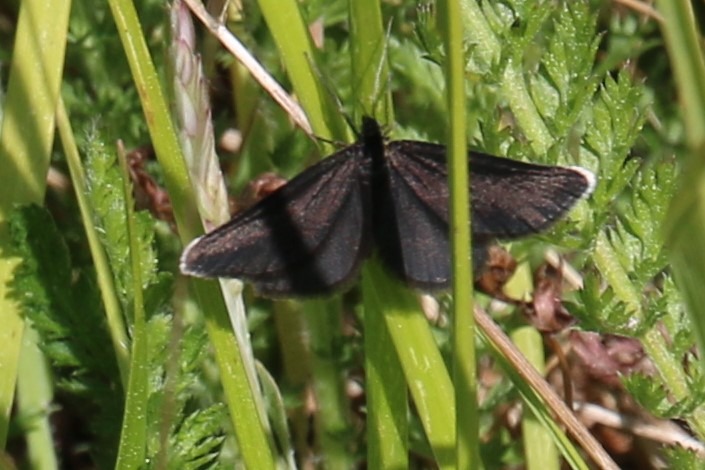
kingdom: Animalia
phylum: Arthropoda
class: Insecta
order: Lepidoptera
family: Geometridae
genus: Odezia
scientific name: Odezia atrata
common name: Sort måler
